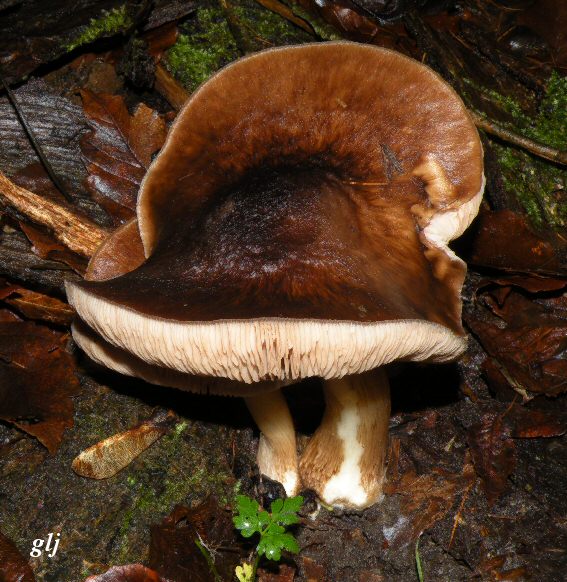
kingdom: Fungi
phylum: Basidiomycota
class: Agaricomycetes
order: Agaricales
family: Pluteaceae
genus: Pluteus
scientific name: Pluteus cervinus
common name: sodfarvet skærmhat
